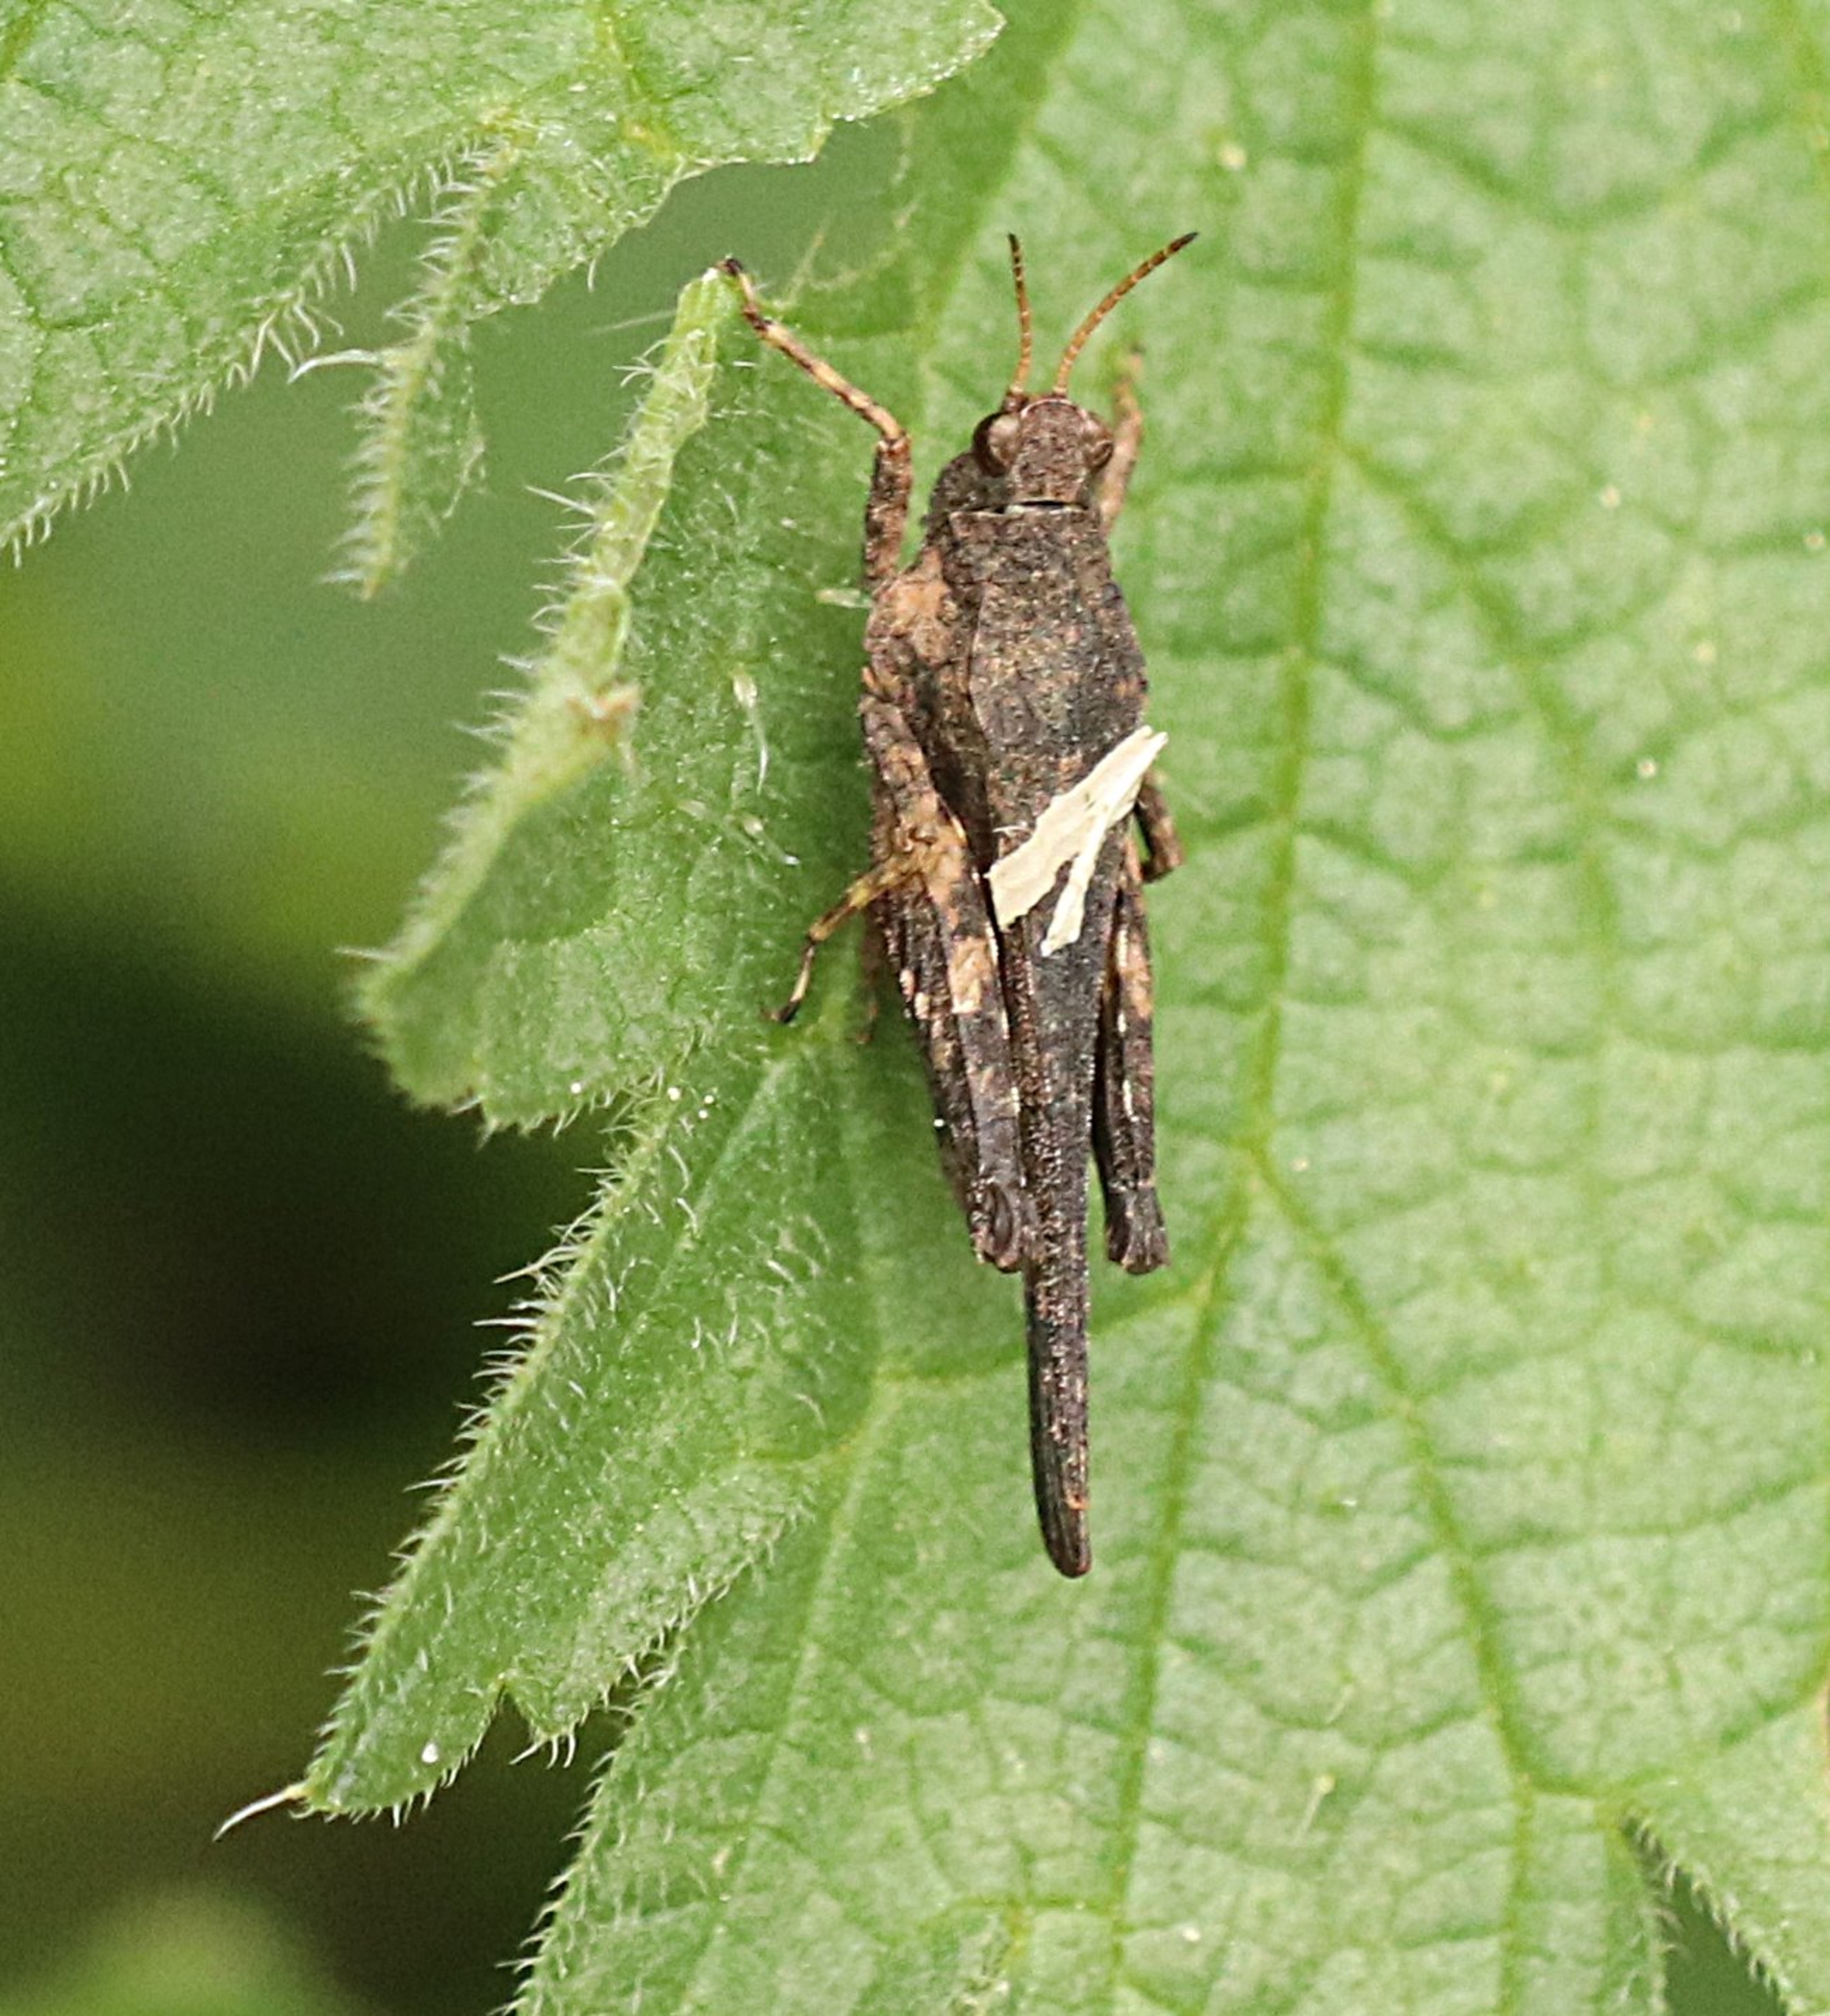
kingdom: Animalia
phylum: Arthropoda
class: Insecta
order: Orthoptera
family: Tetrigidae
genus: Tetrix
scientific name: Tetrix subulata
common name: Sump-torngræshoppe
